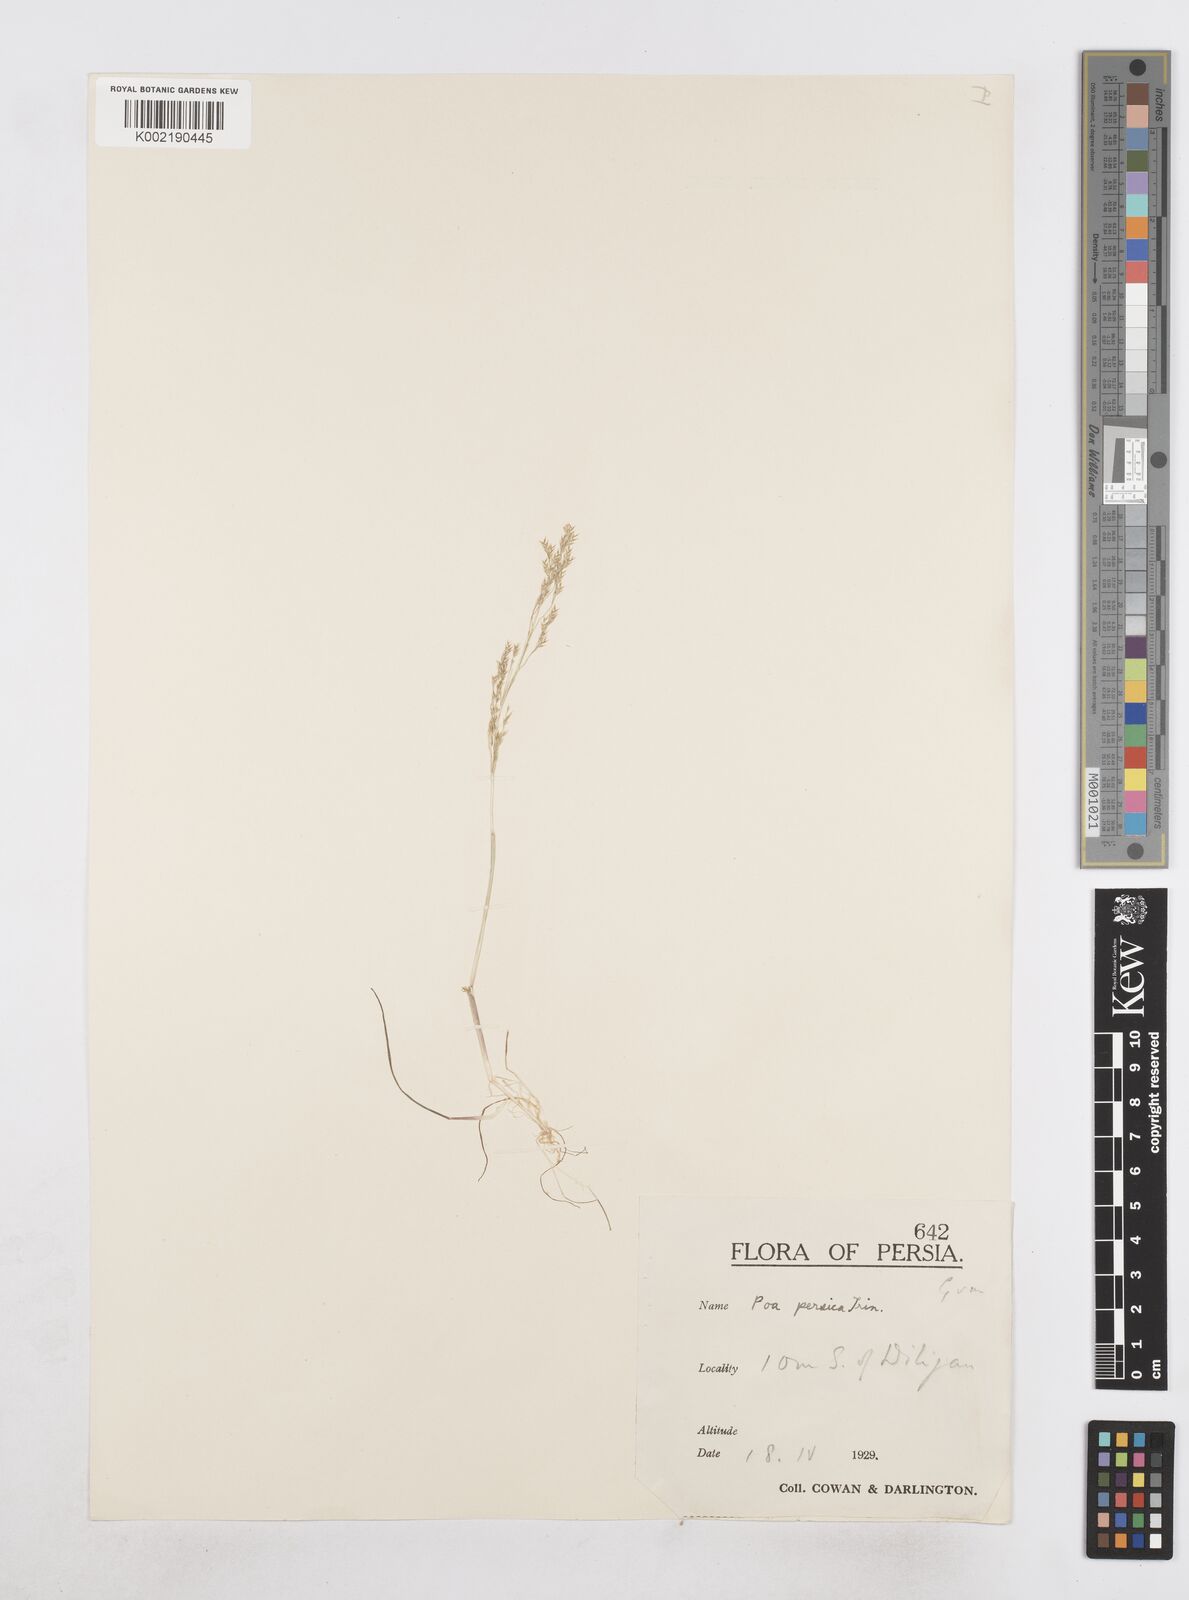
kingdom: Plantae
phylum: Tracheophyta
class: Liliopsida
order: Poales
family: Poaceae
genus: Poa
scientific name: Poa diaphora
